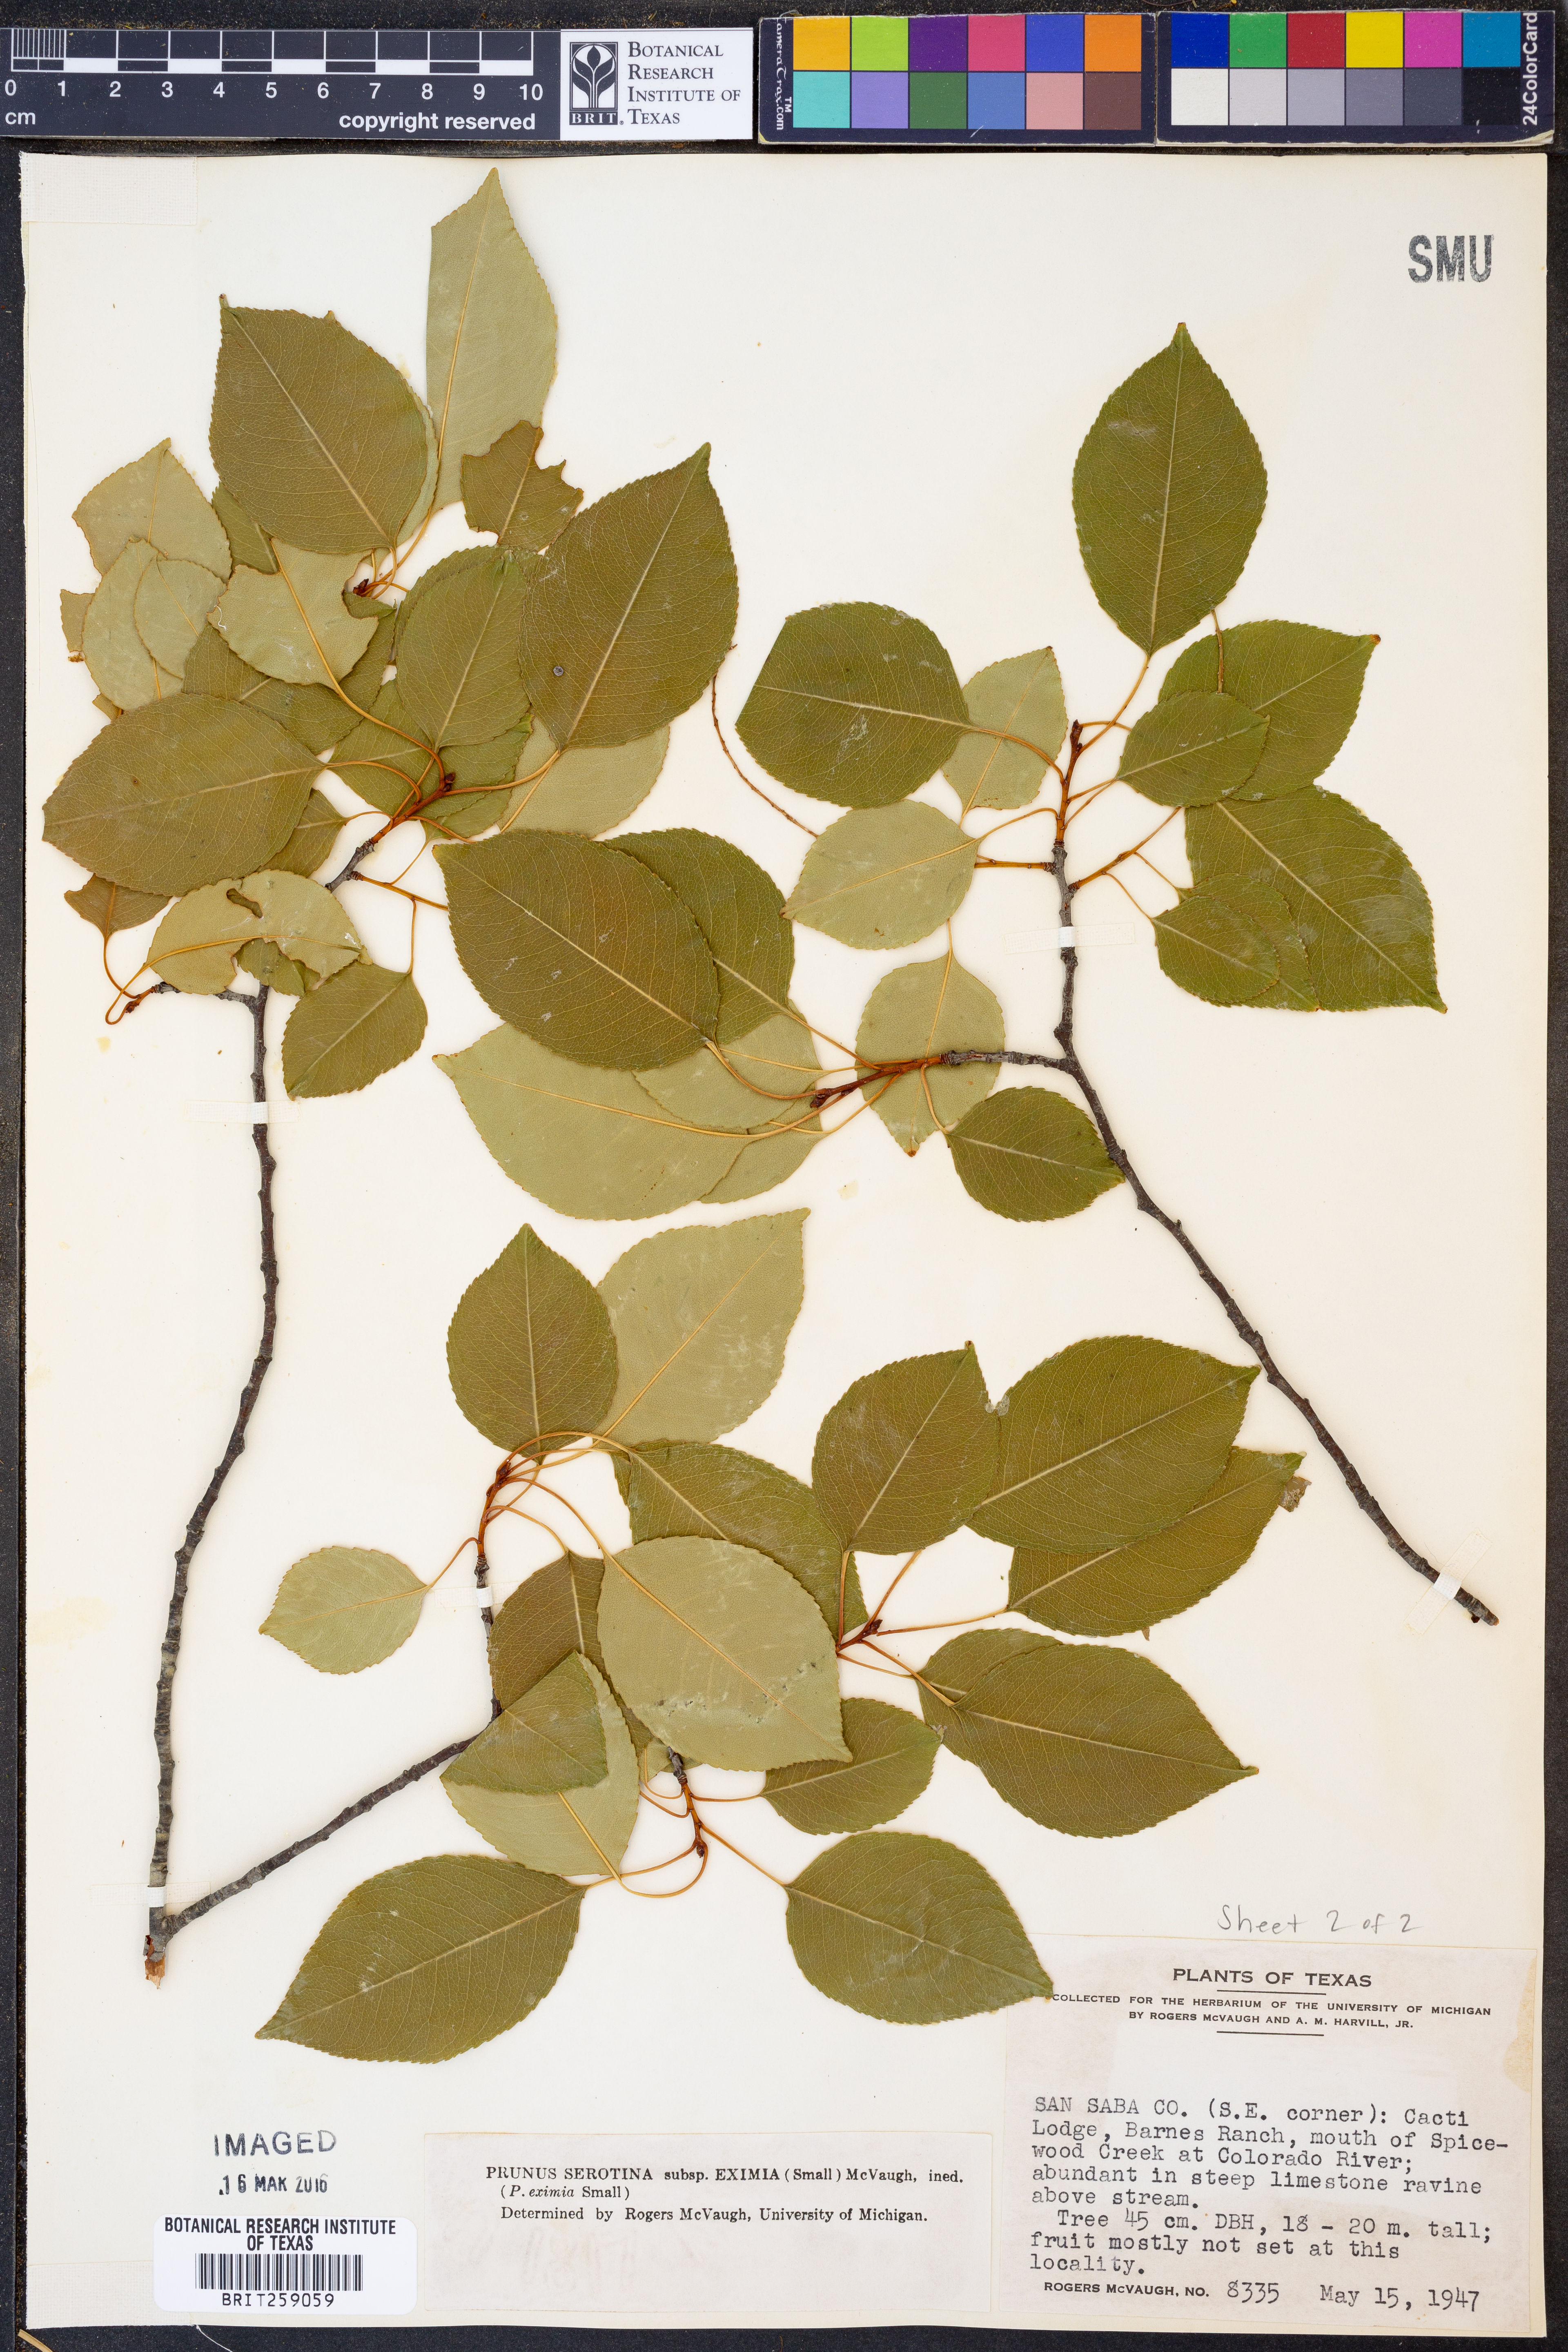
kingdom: Plantae
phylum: Tracheophyta
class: Magnoliopsida
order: Rosales
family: Rosaceae
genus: Prunus
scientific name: Prunus serotina
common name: Black cherry
